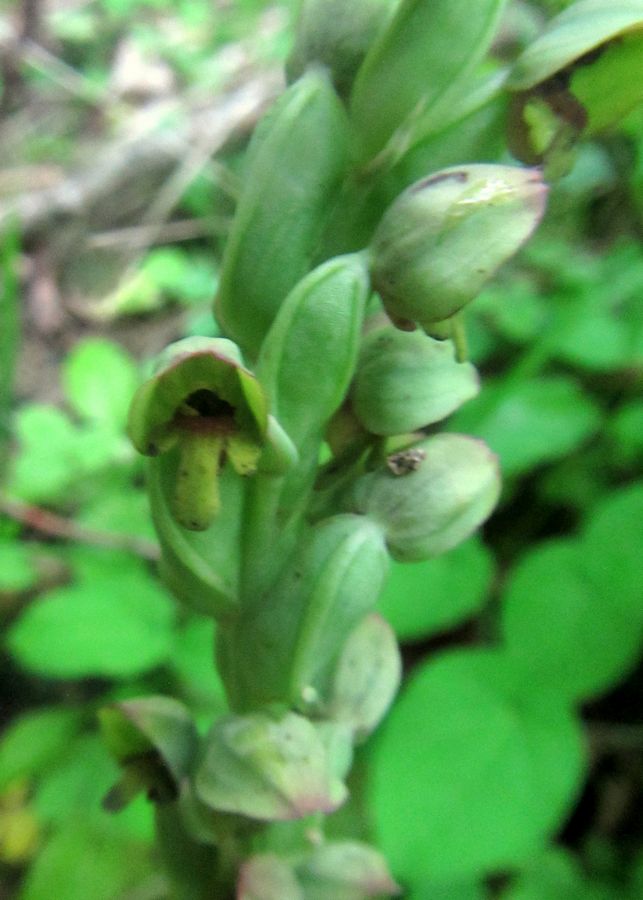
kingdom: Plantae
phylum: Tracheophyta
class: Liliopsida
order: Asparagales
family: Orchidaceae
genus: Steveniella
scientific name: Steveniella satyrioides
